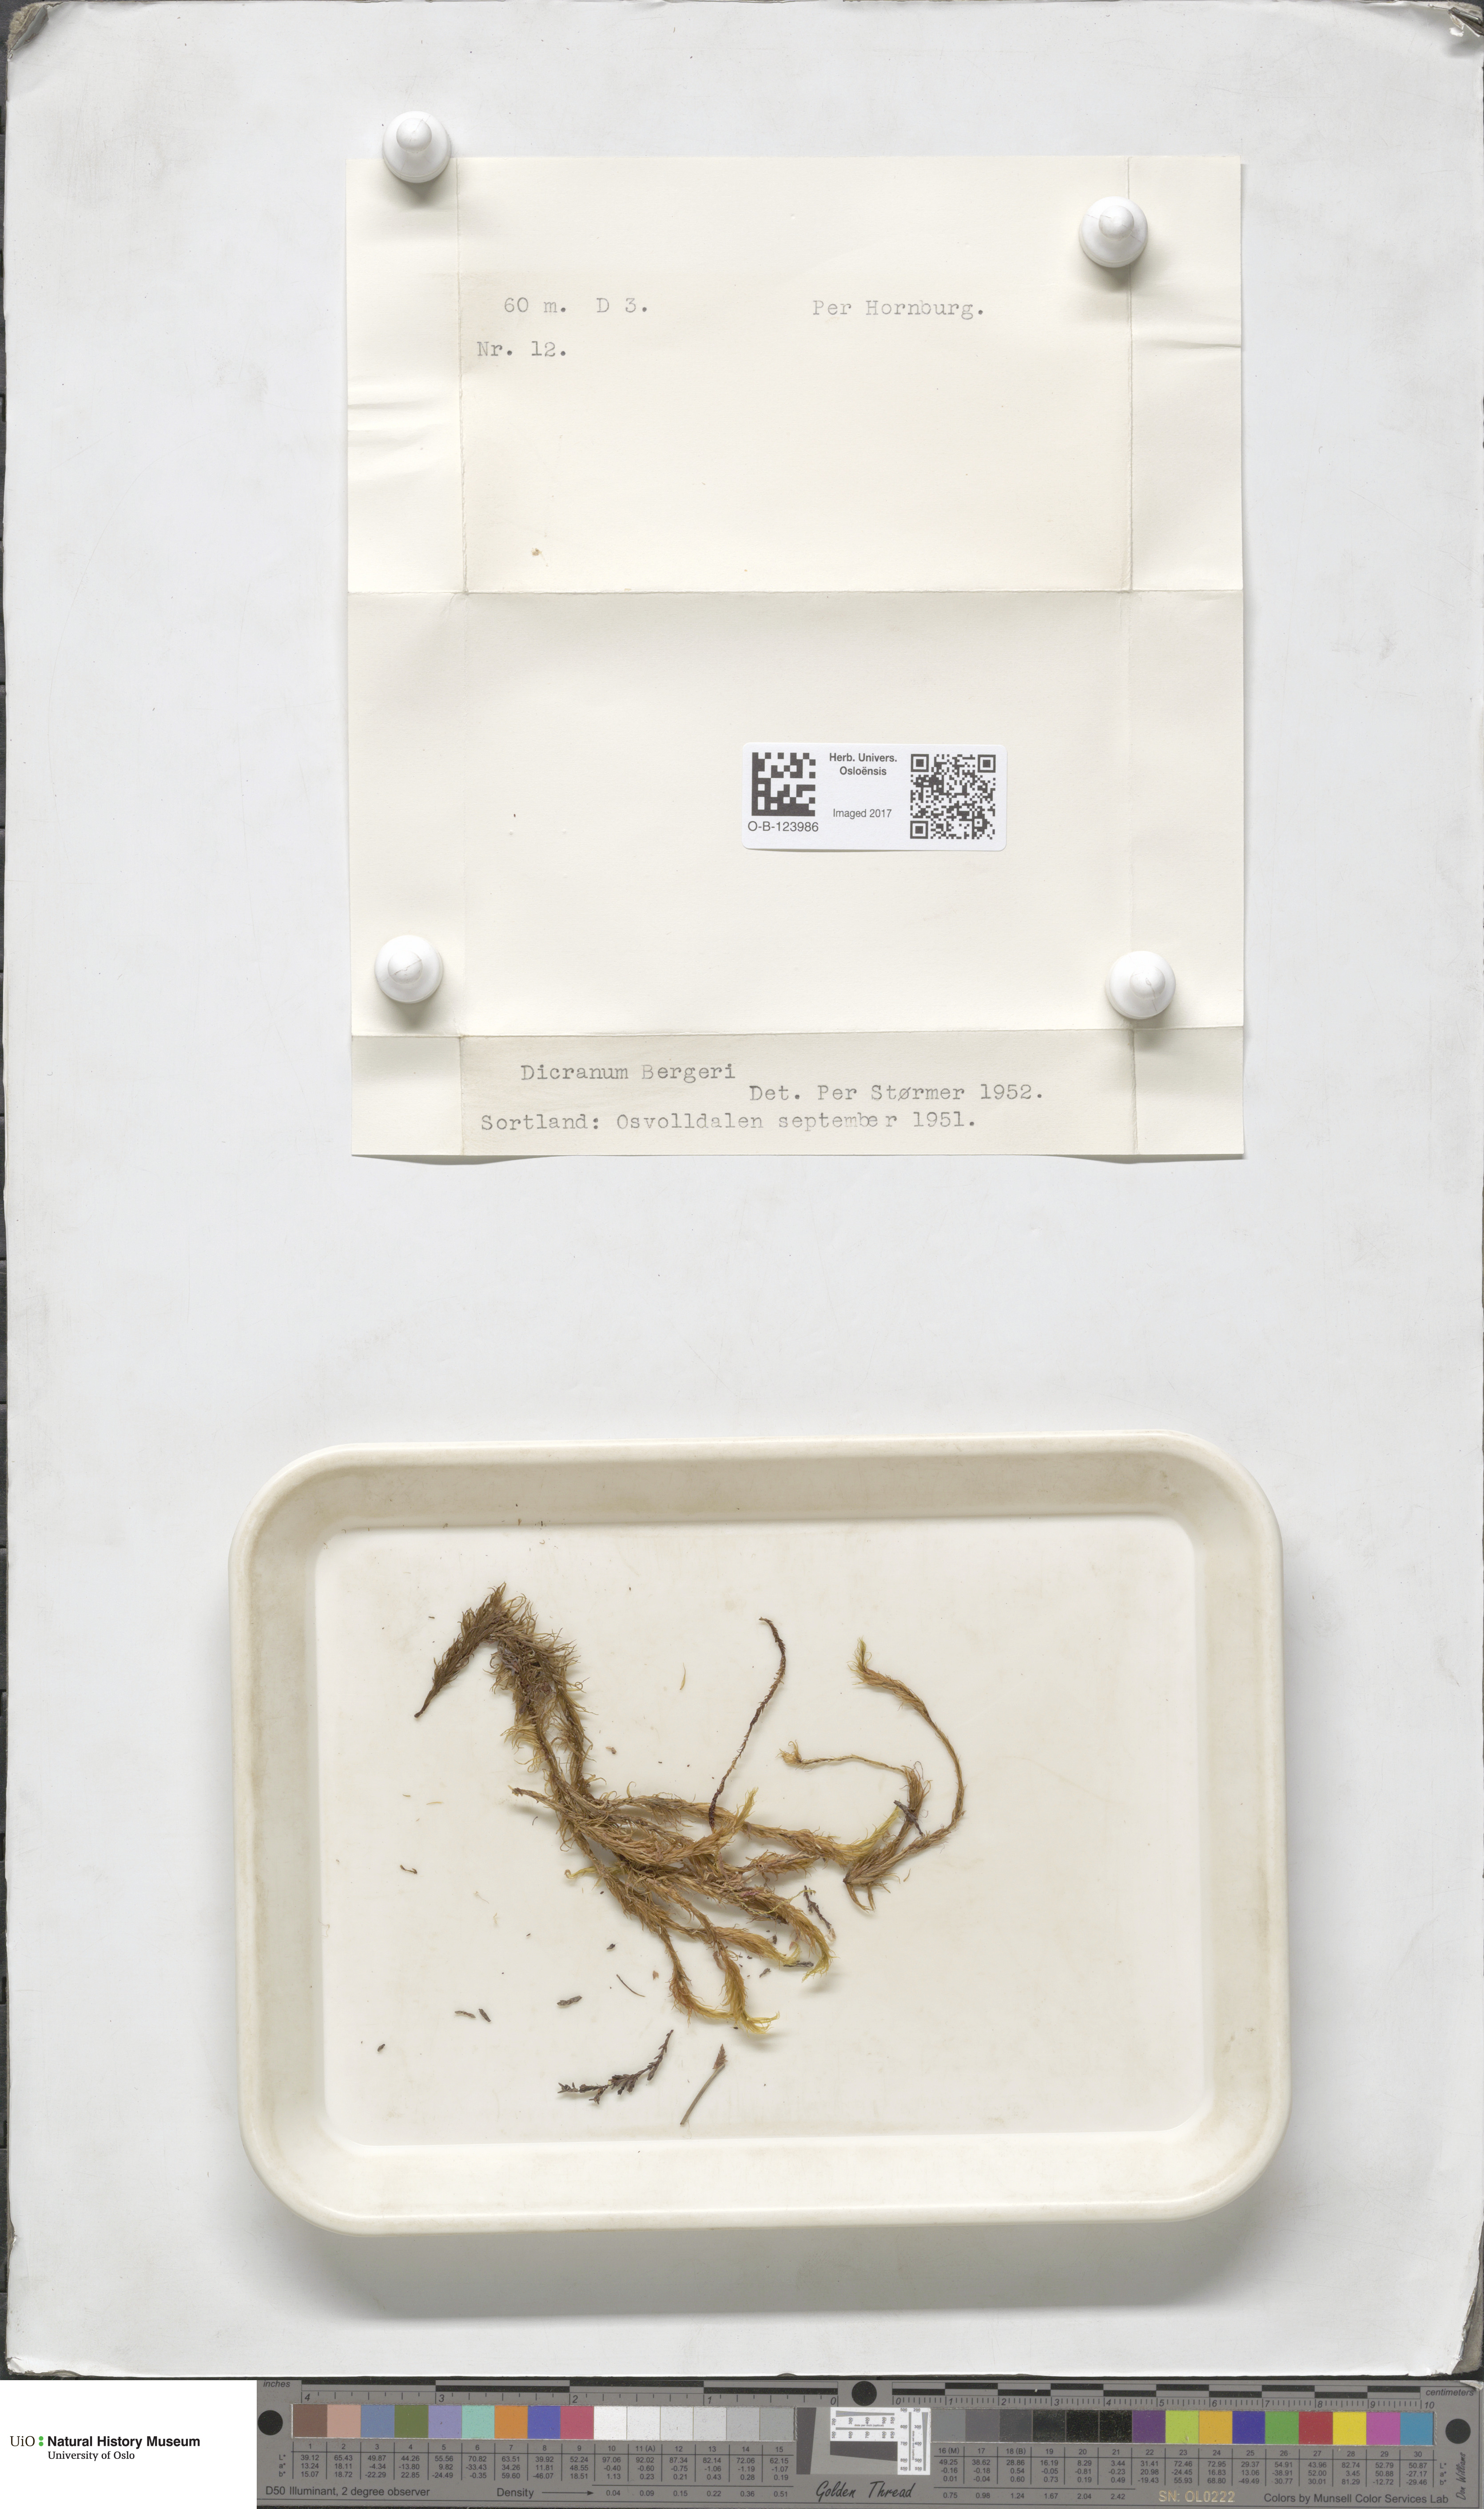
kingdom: Plantae
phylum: Bryophyta
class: Bryopsida
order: Dicranales
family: Dicranaceae
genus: Dicranum
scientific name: Dicranum undulatum
